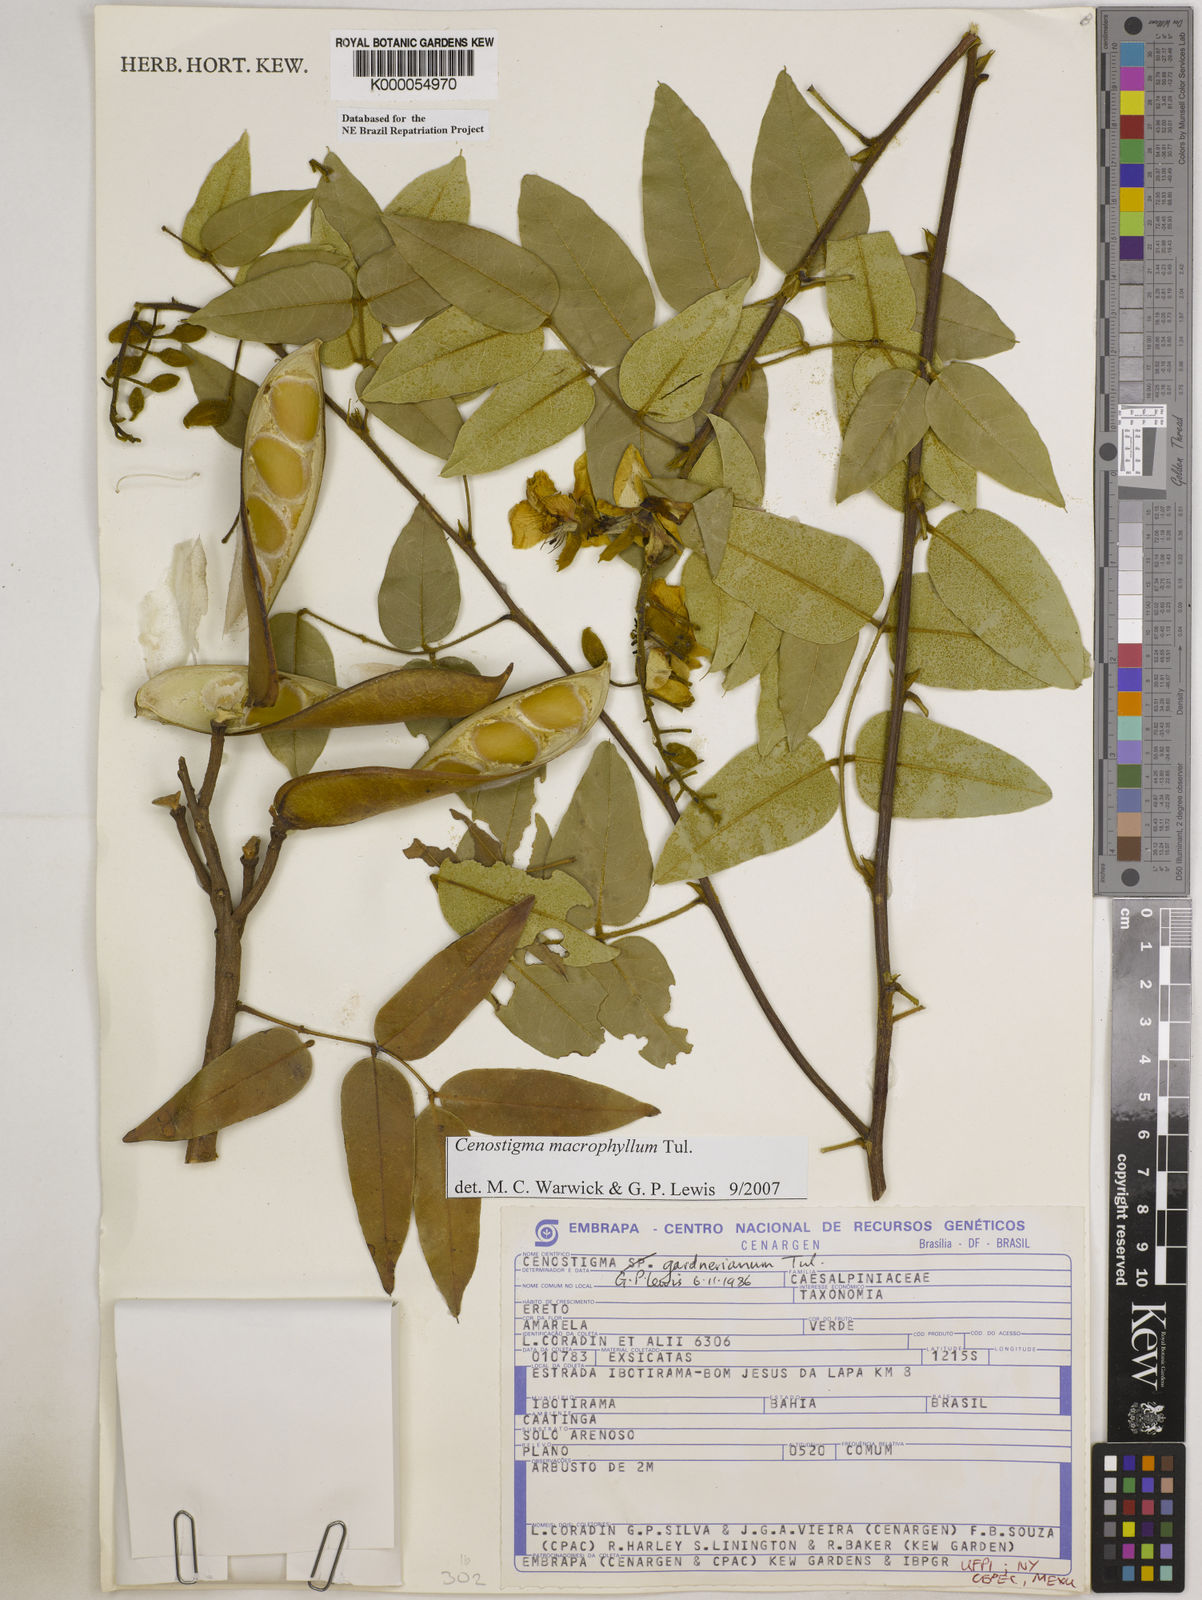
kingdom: Plantae
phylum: Tracheophyta
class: Magnoliopsida
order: Fabales
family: Fabaceae
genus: Cenostigma
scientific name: Cenostigma macrophyllum
